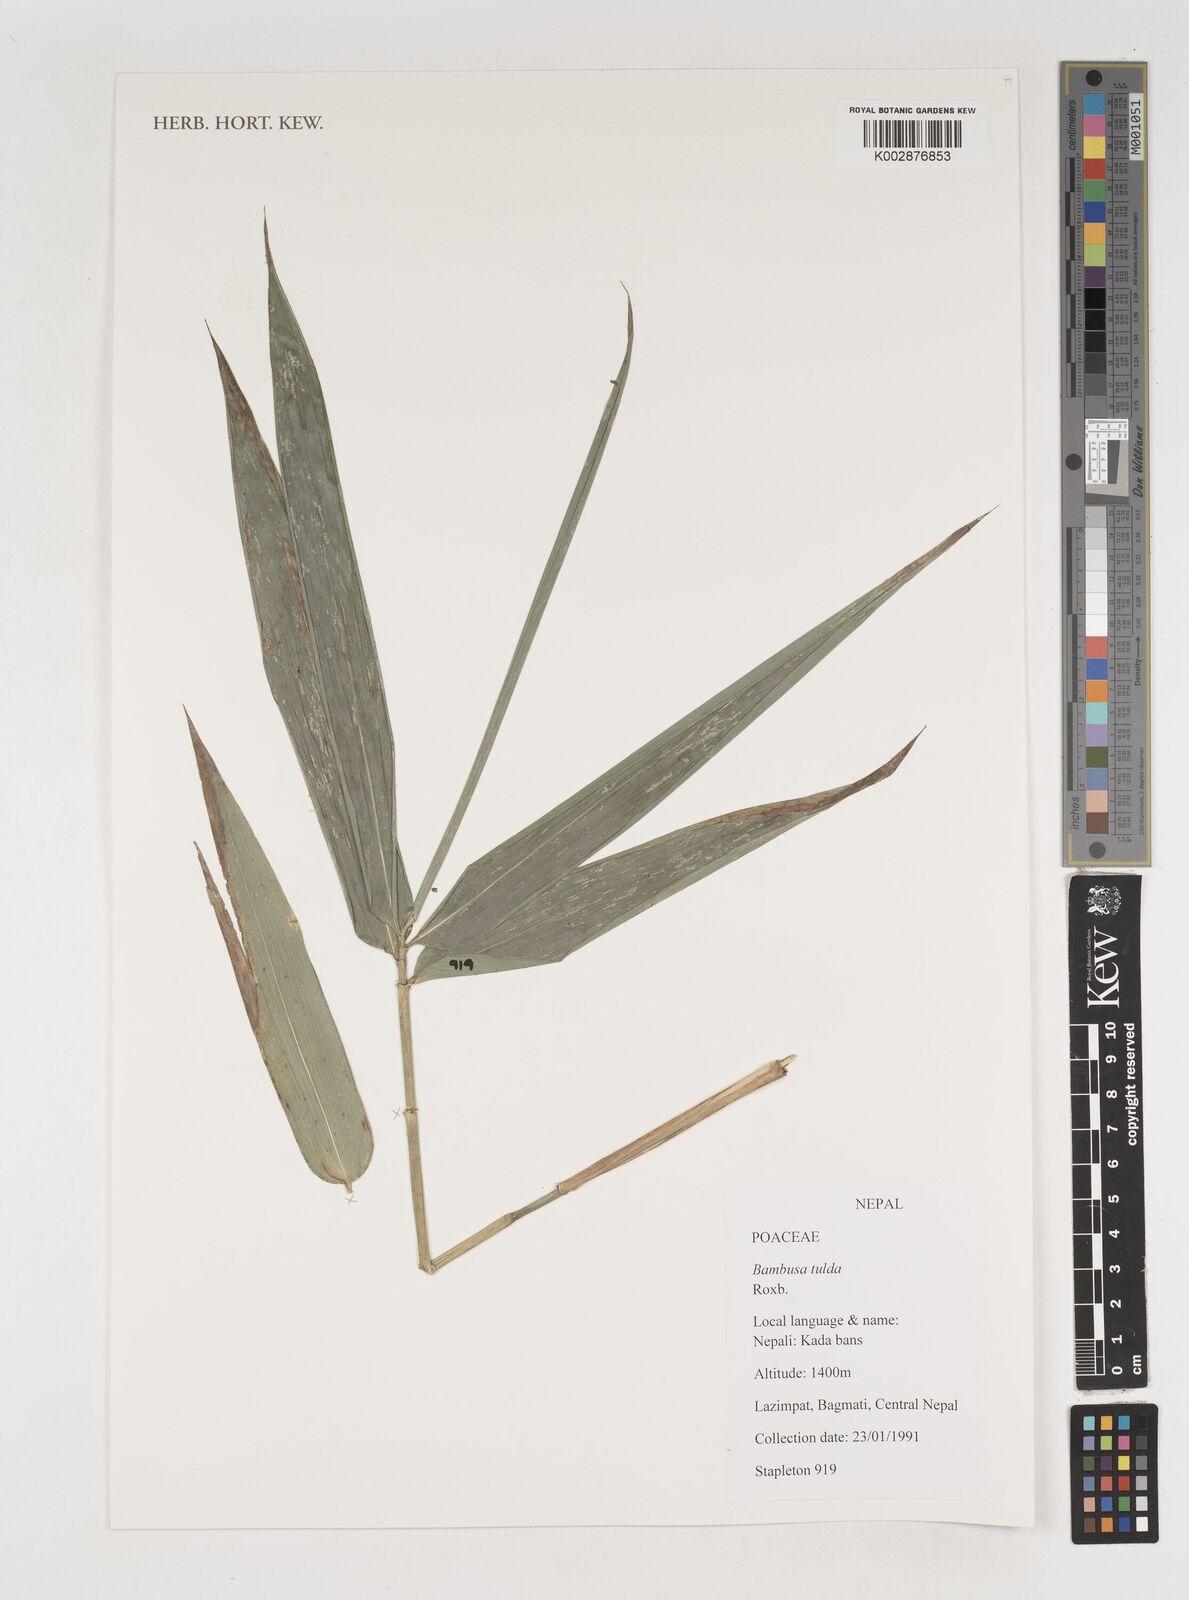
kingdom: Plantae
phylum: Tracheophyta
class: Liliopsida
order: Poales
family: Poaceae
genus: Bambusa
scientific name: Bambusa tulda
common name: Bengal bamboo
